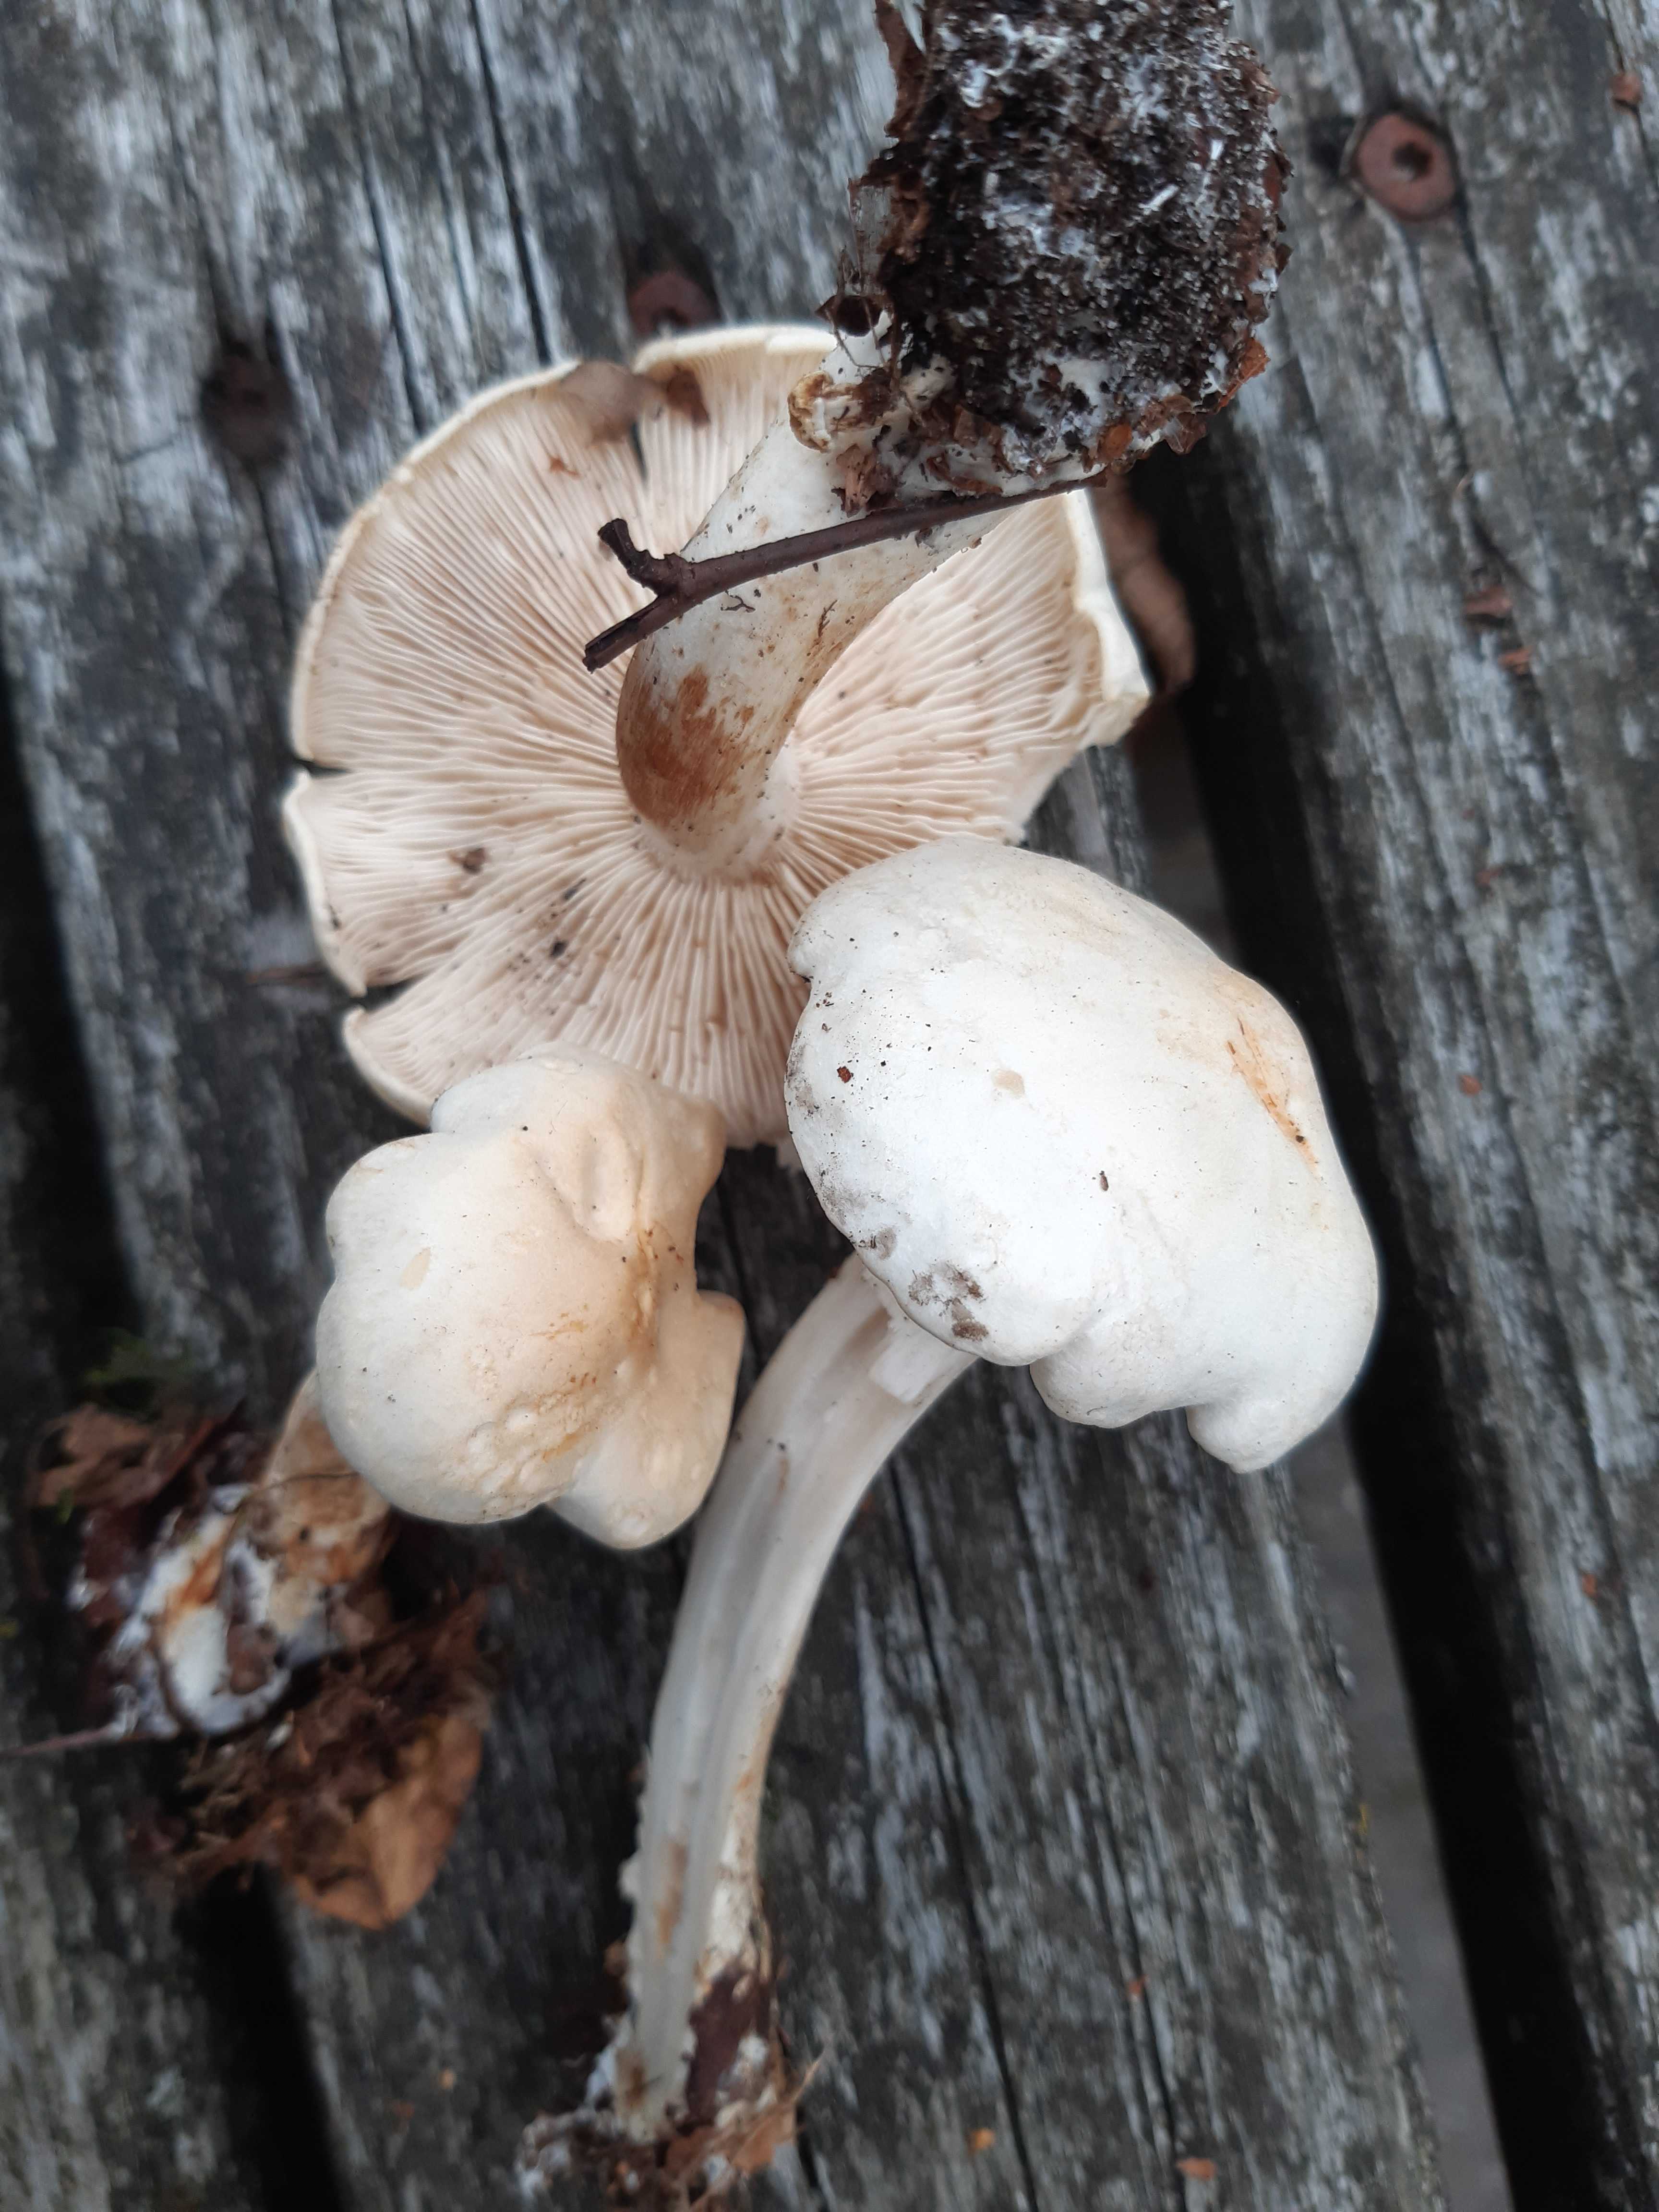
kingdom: Fungi
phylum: Basidiomycota
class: Agaricomycetes
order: Agaricales
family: Tricholomataceae
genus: Tricholoma
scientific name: Tricholoma stiparophyllum
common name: hvid ridderhat
